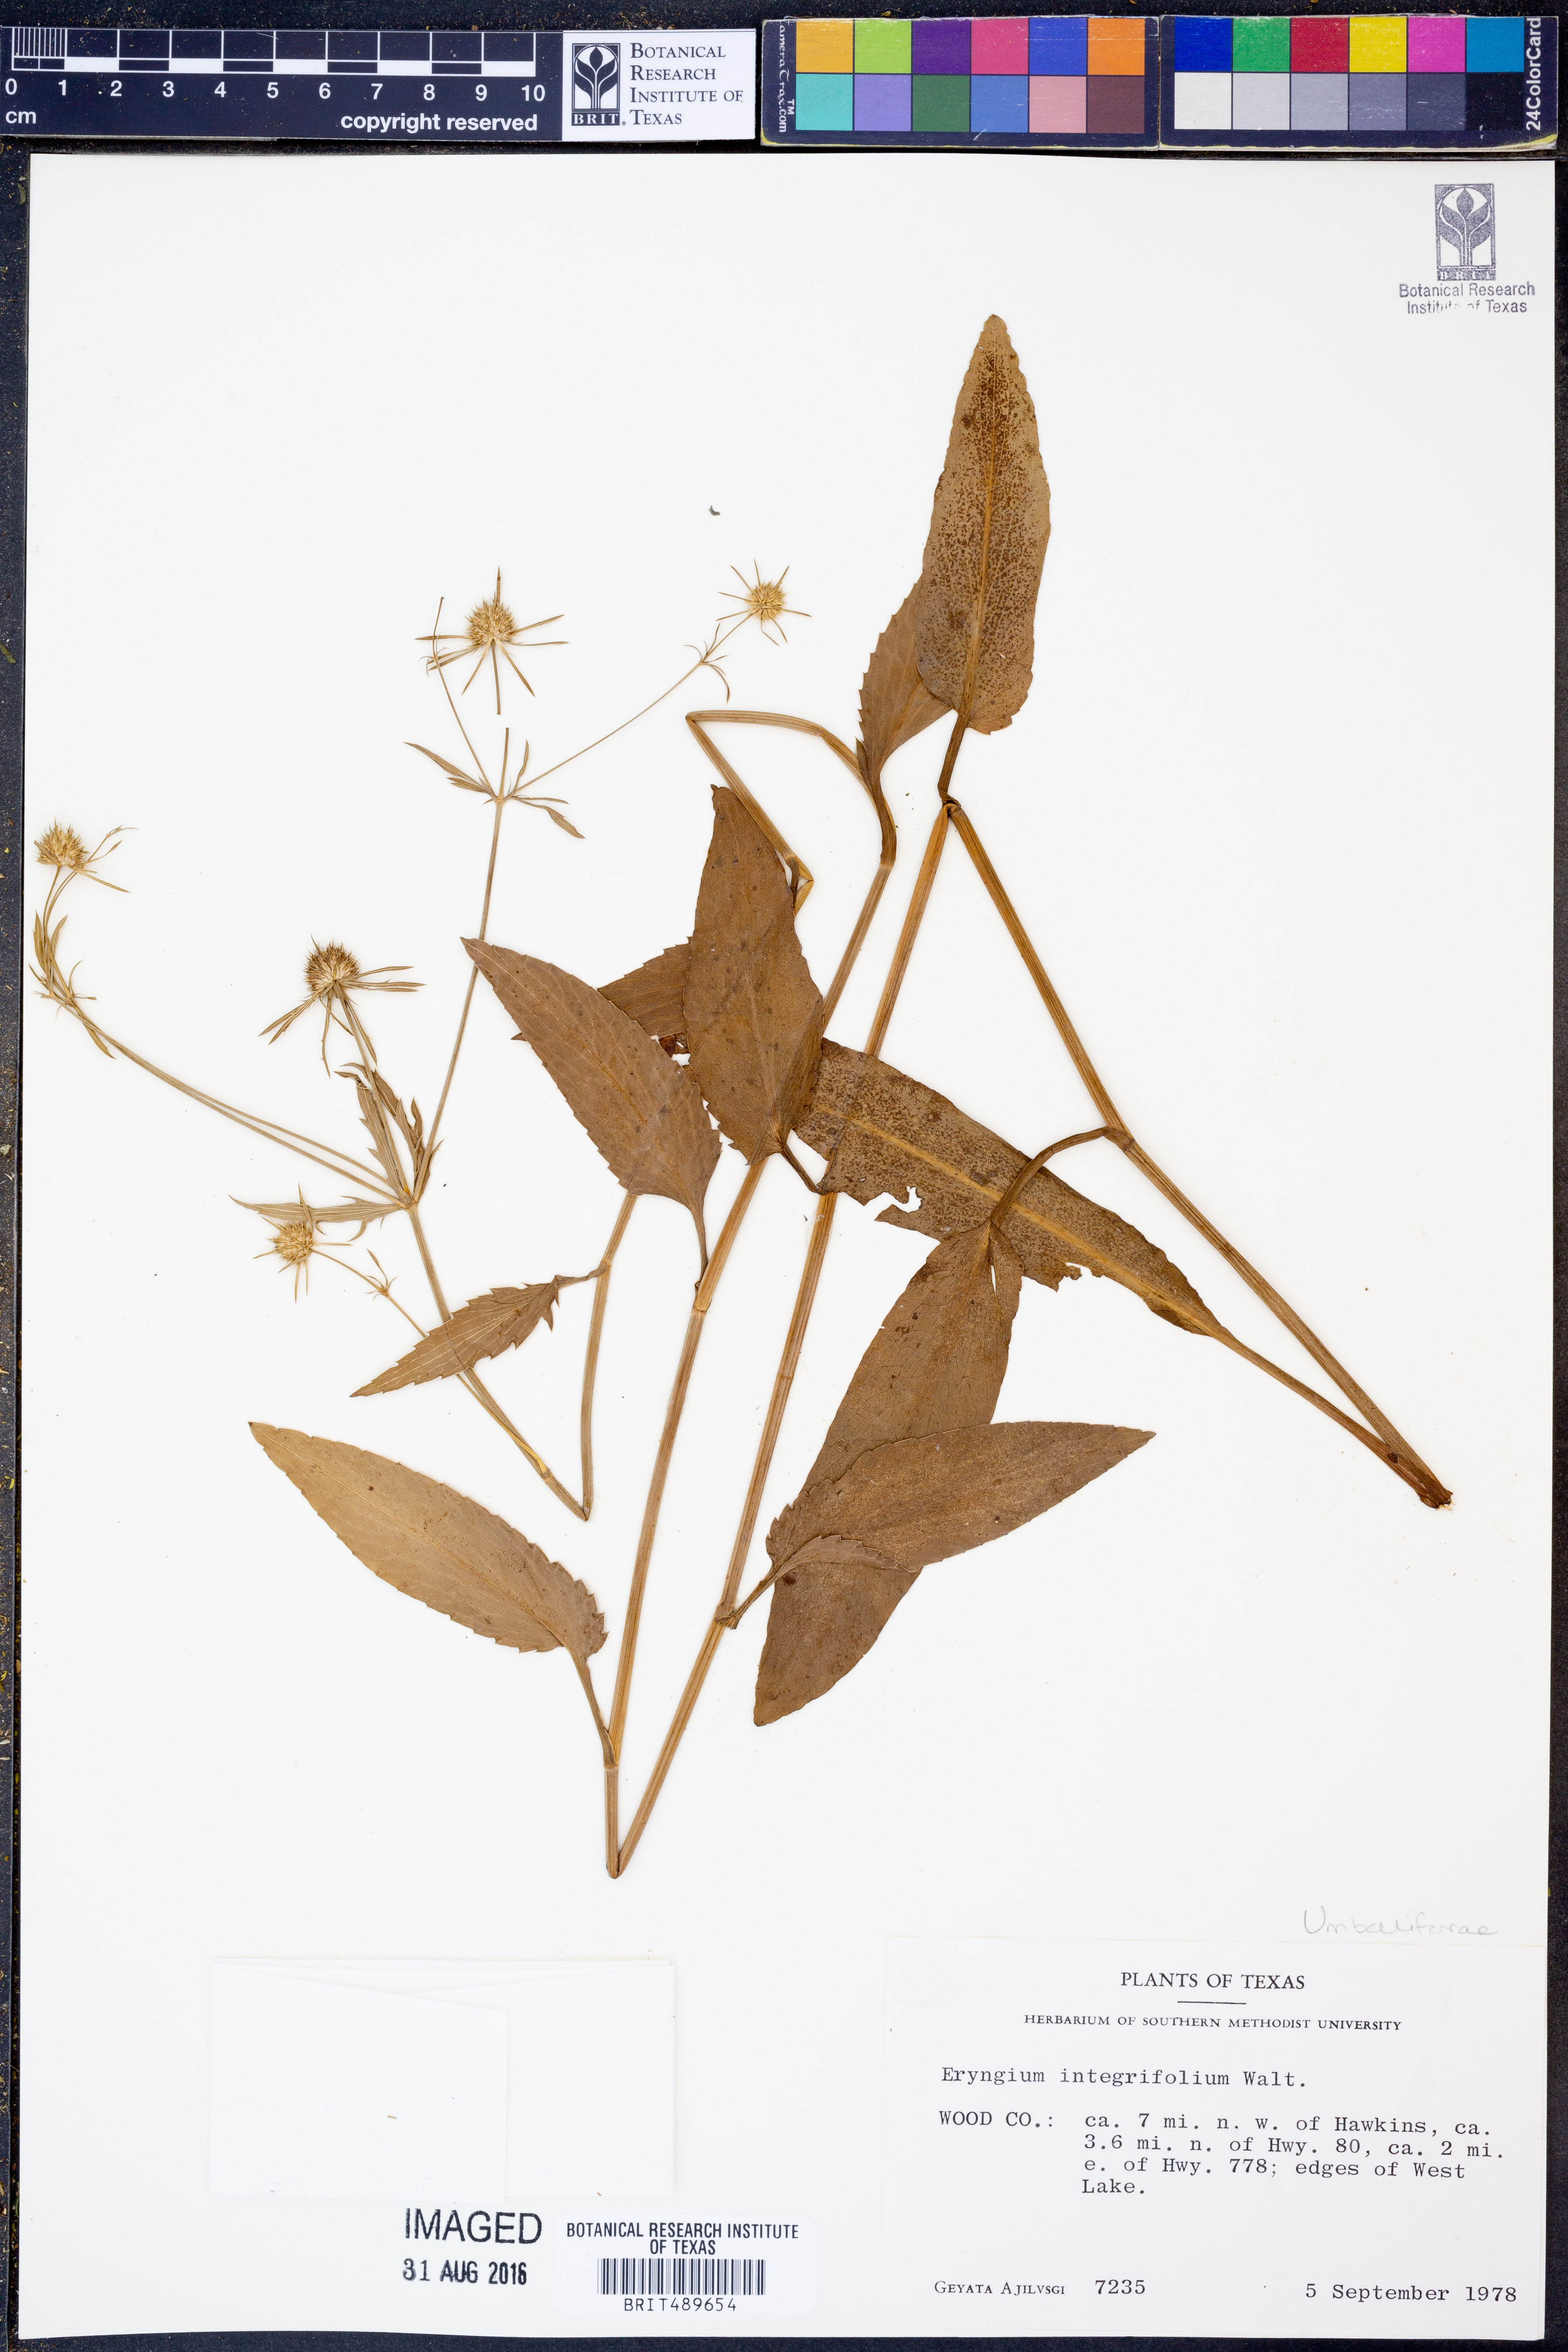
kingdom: Plantae
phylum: Tracheophyta
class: Magnoliopsida
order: Apiales
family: Apiaceae
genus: Eryngium
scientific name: Eryngium integrifolium
